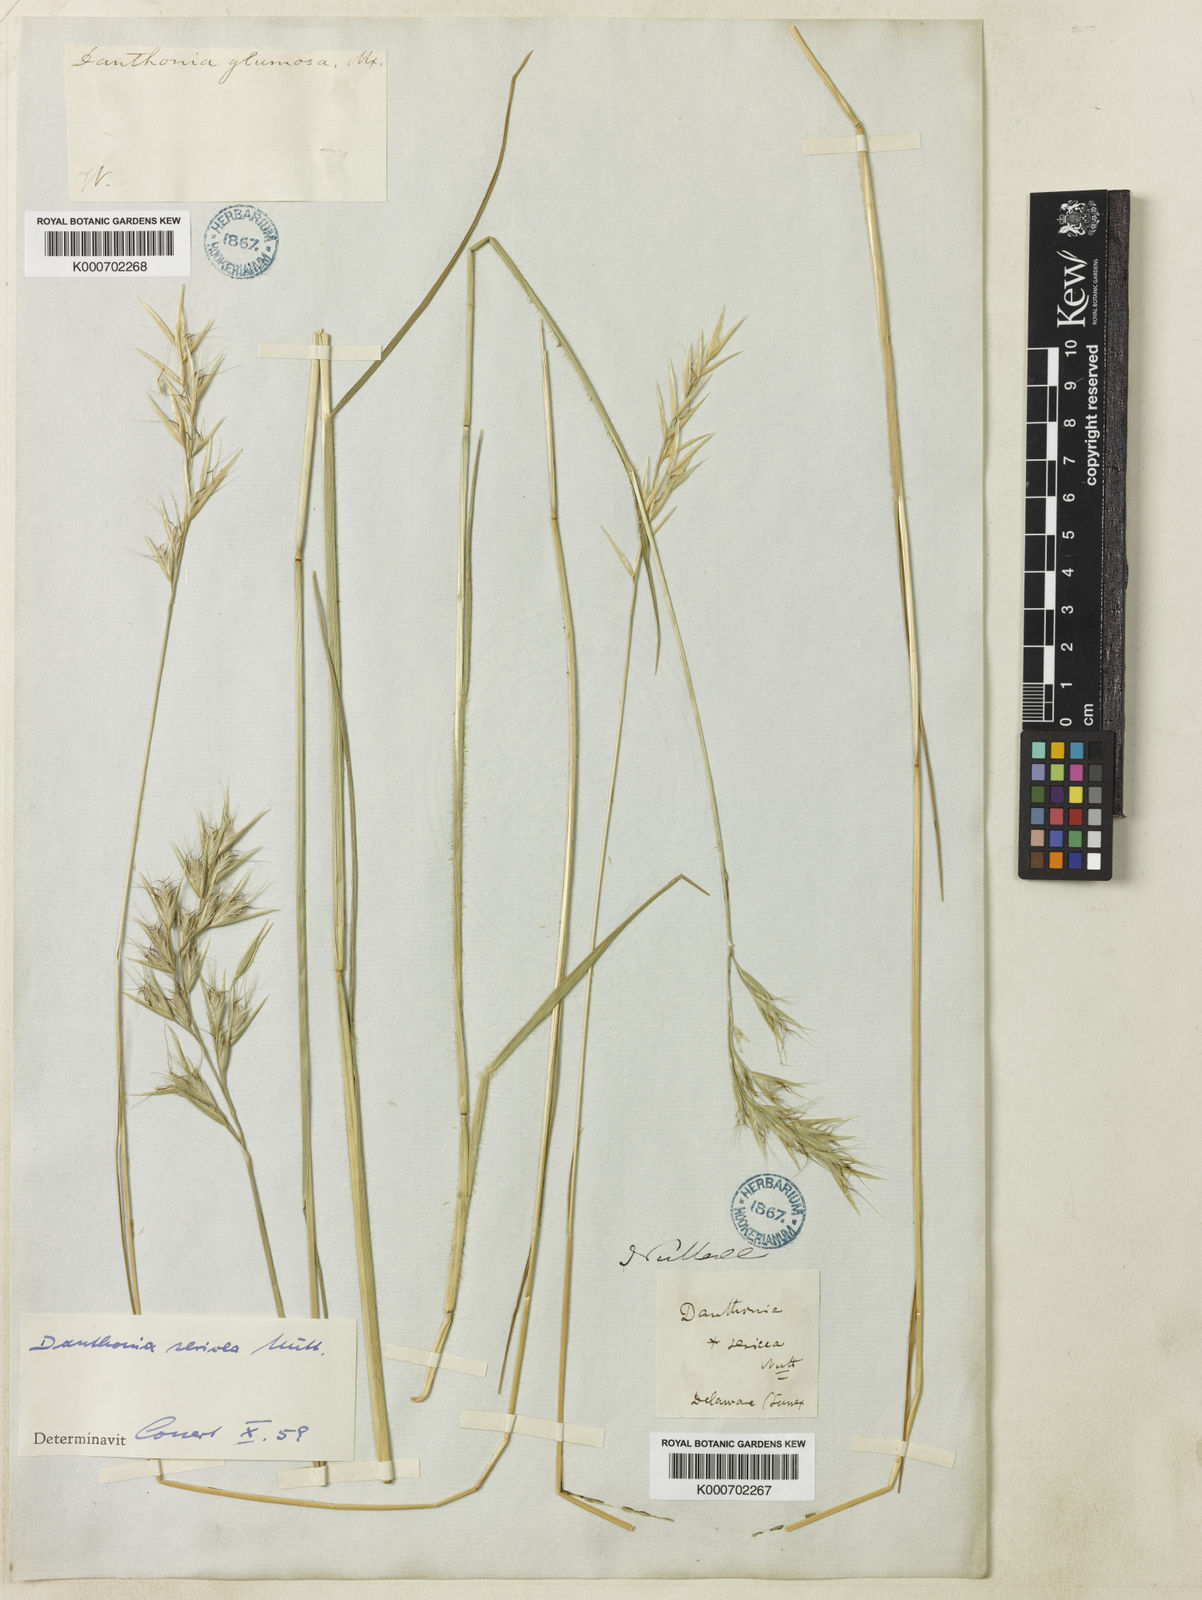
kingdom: Plantae
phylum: Tracheophyta
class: Liliopsida
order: Poales
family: Poaceae
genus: Danthonia
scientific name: Danthonia sericea
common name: Downy danthonia
